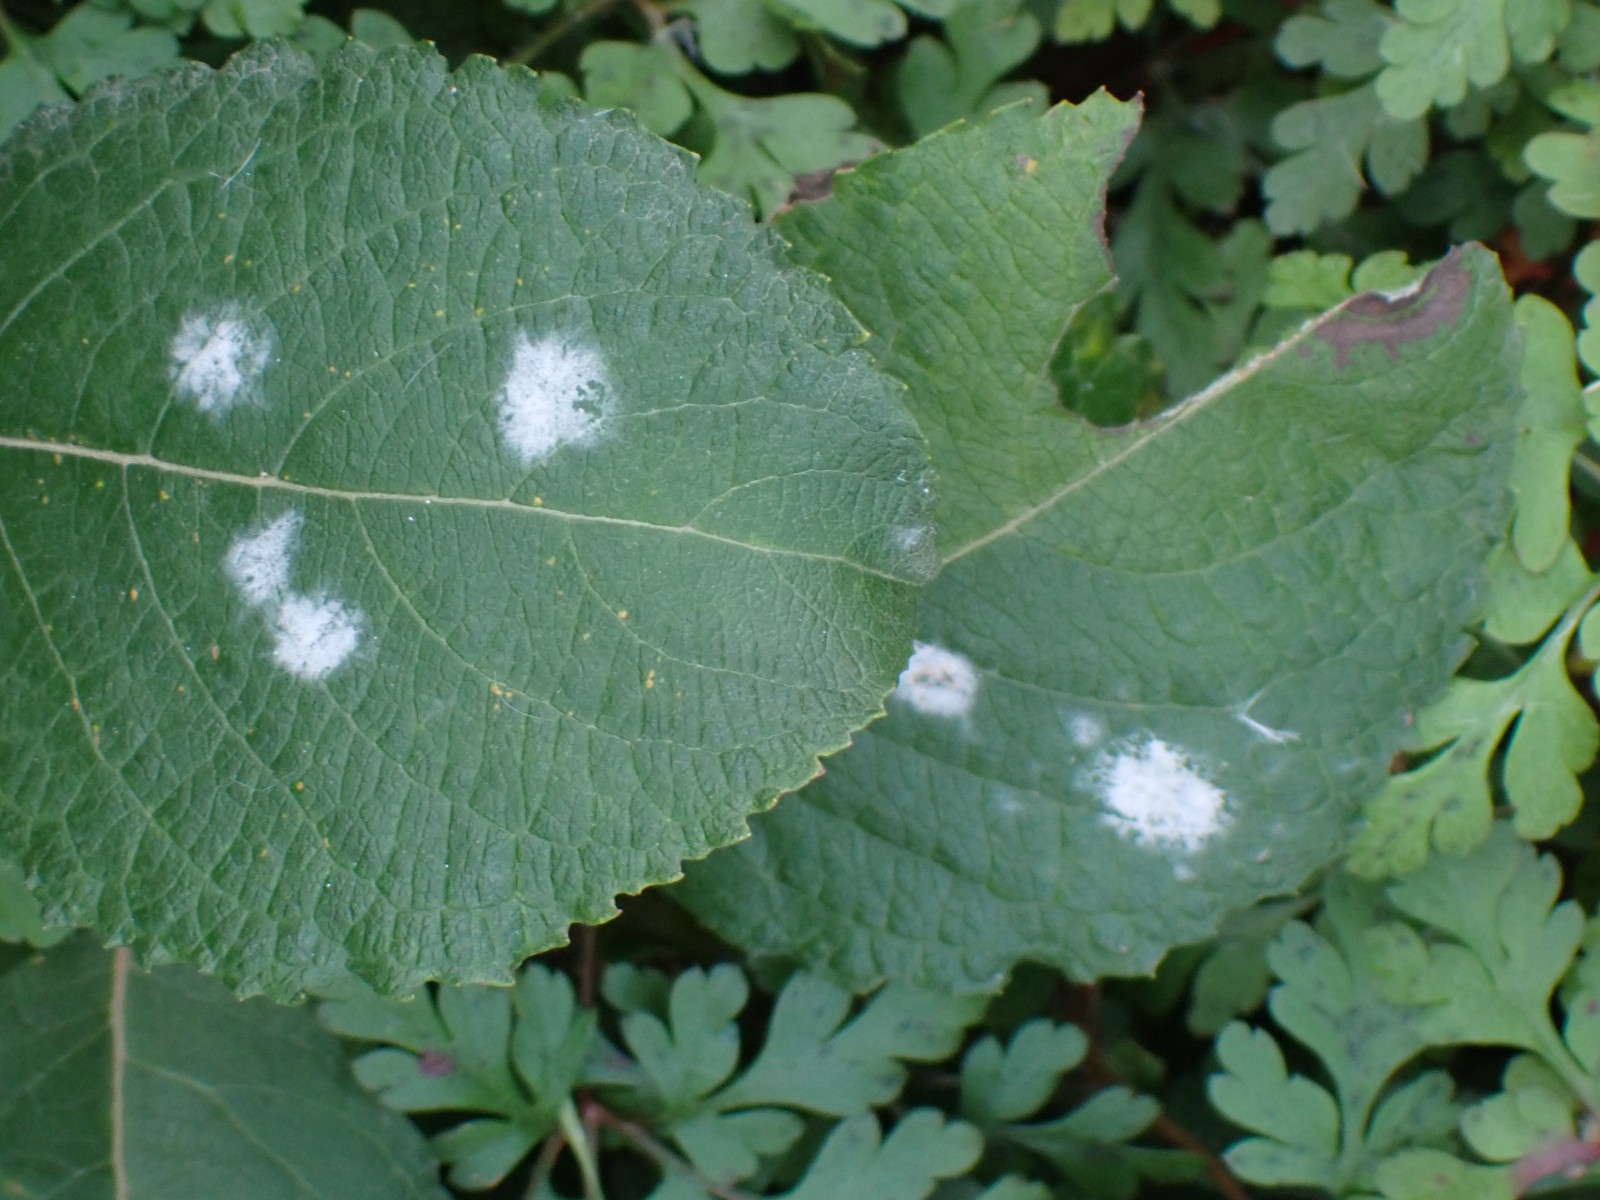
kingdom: Fungi
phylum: Ascomycota
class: Leotiomycetes
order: Helotiales
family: Erysiphaceae
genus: Erysiphe
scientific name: Erysiphe adunca
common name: pile-meldug
